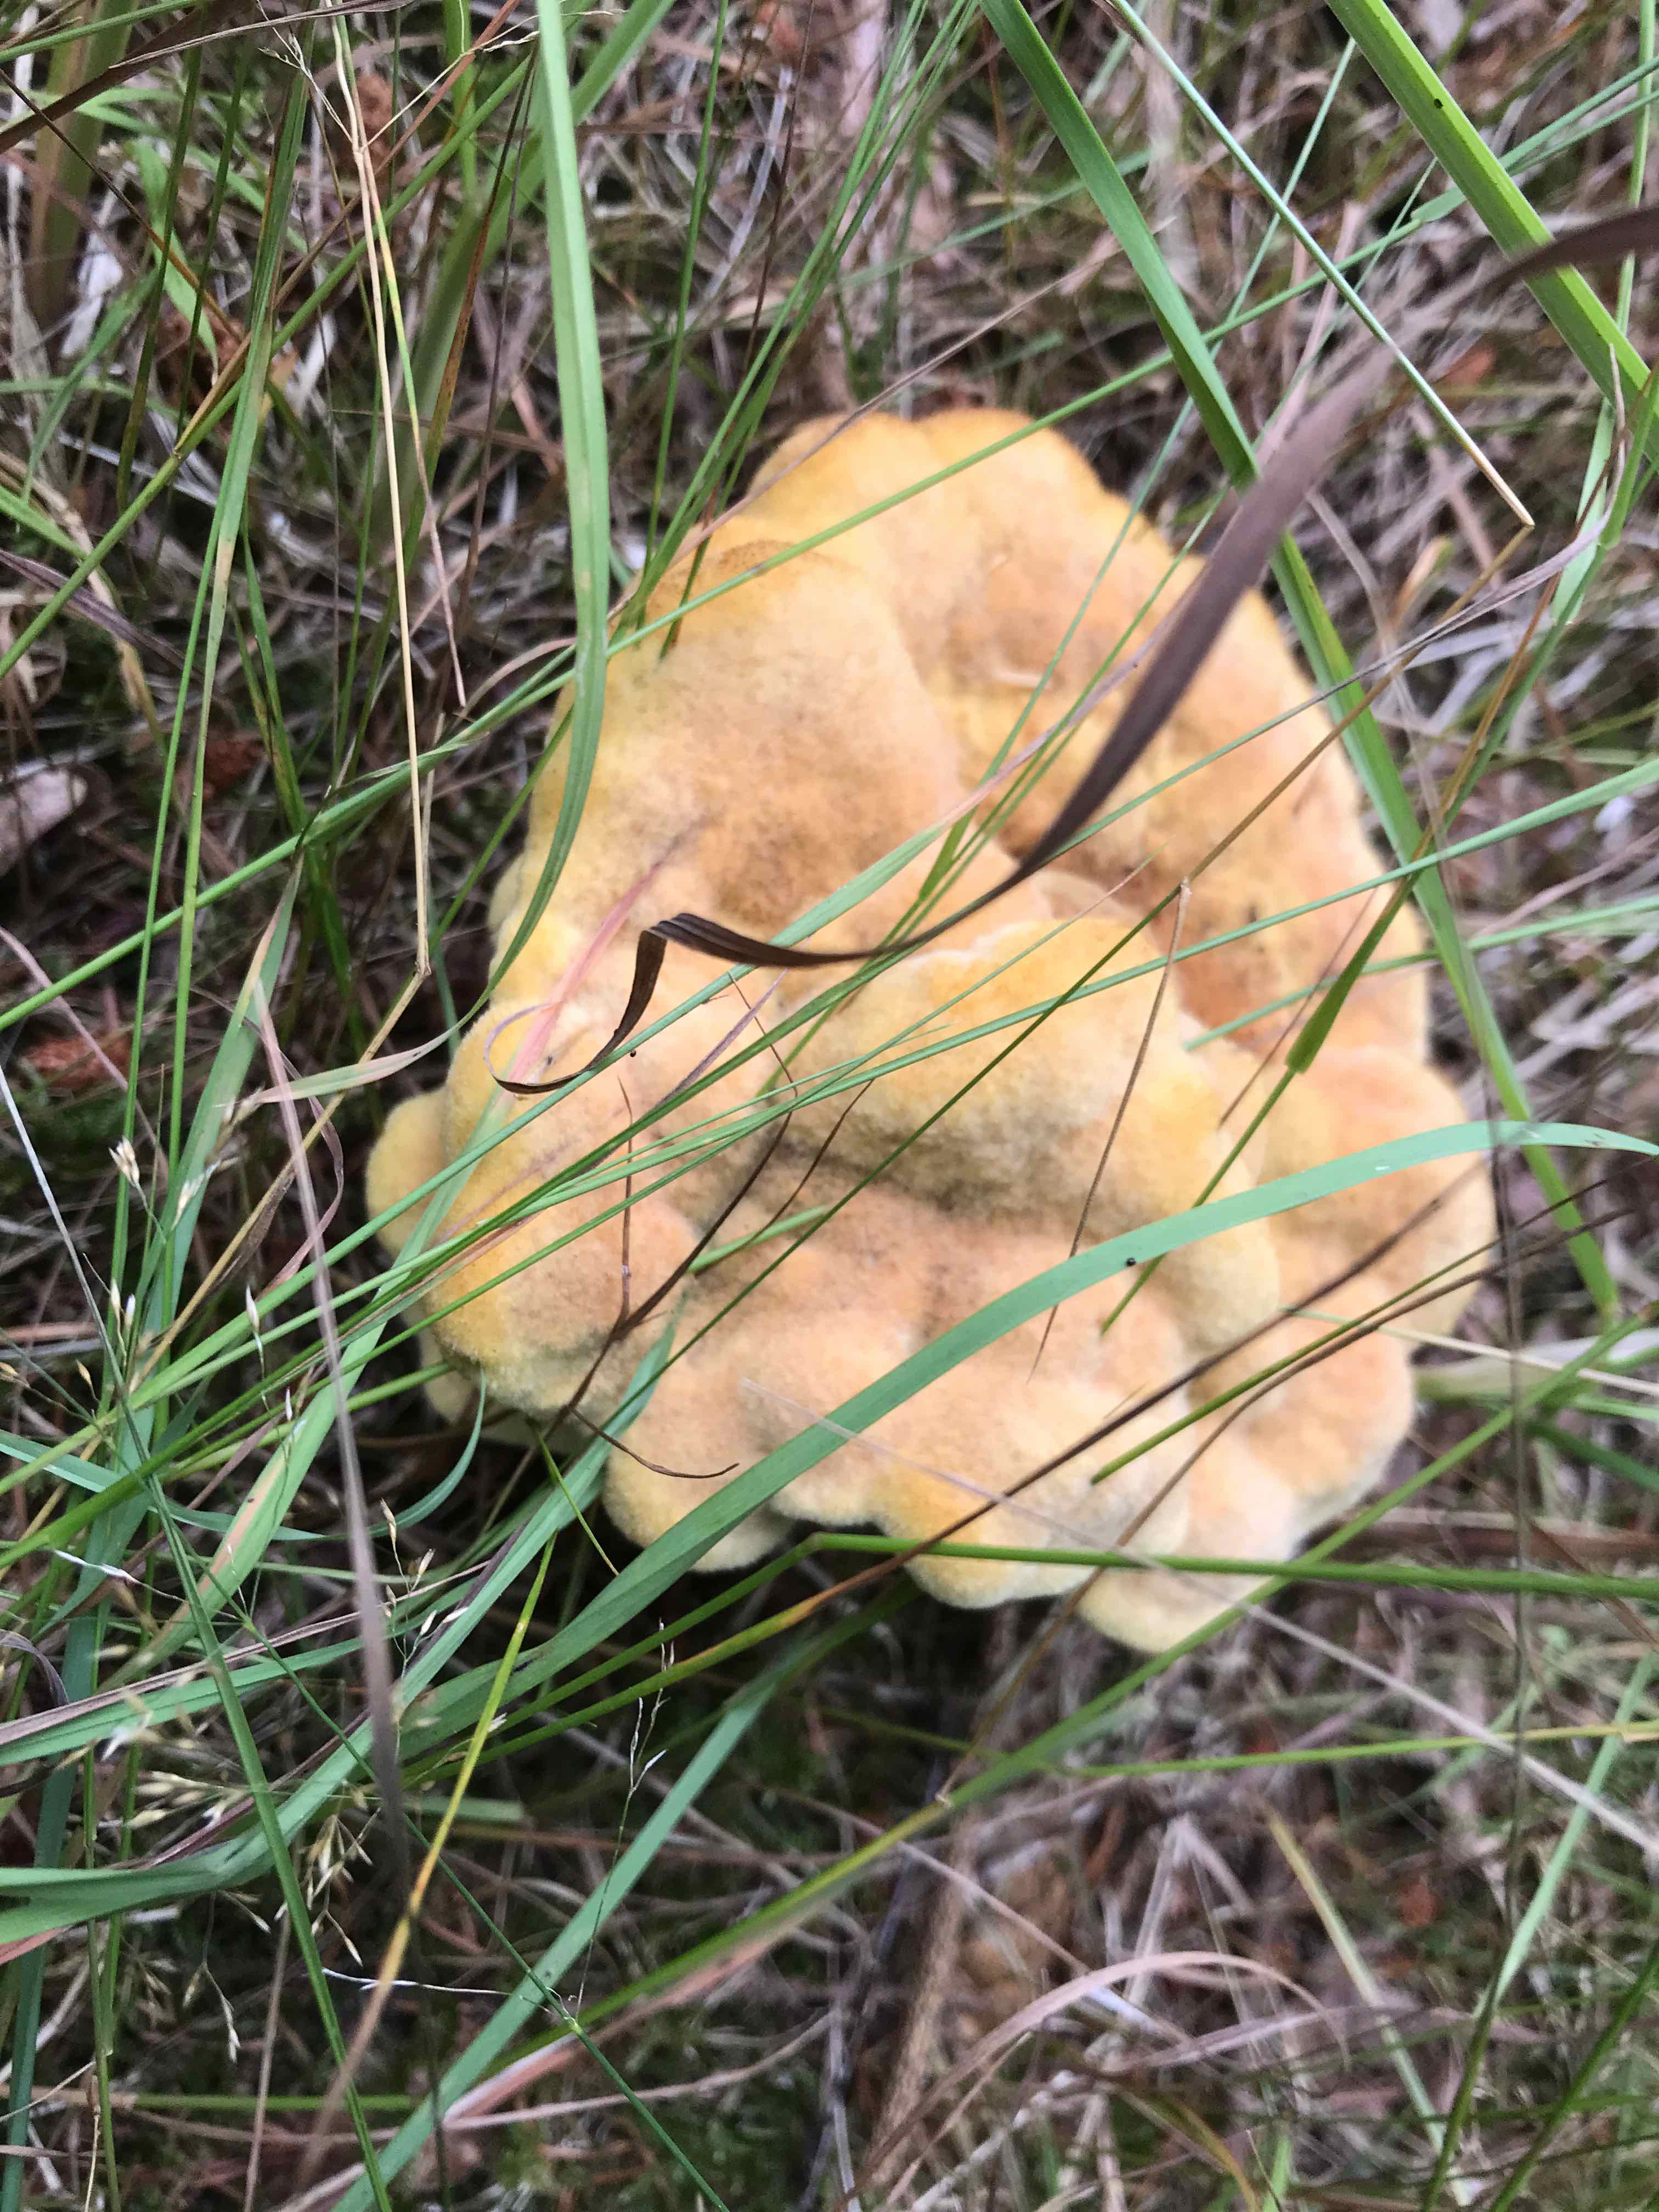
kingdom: Fungi
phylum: Basidiomycota
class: Agaricomycetes
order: Polyporales
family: Laetiporaceae
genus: Phaeolus
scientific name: Phaeolus schweinitzii
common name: brunporesvamp
